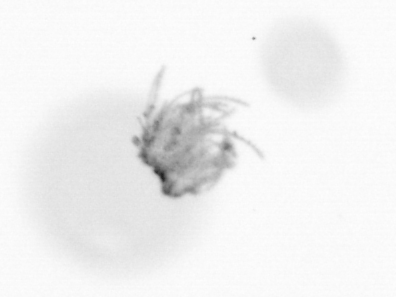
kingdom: Chromista
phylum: Ochrophyta
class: Bacillariophyceae
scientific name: Bacillariophyceae
